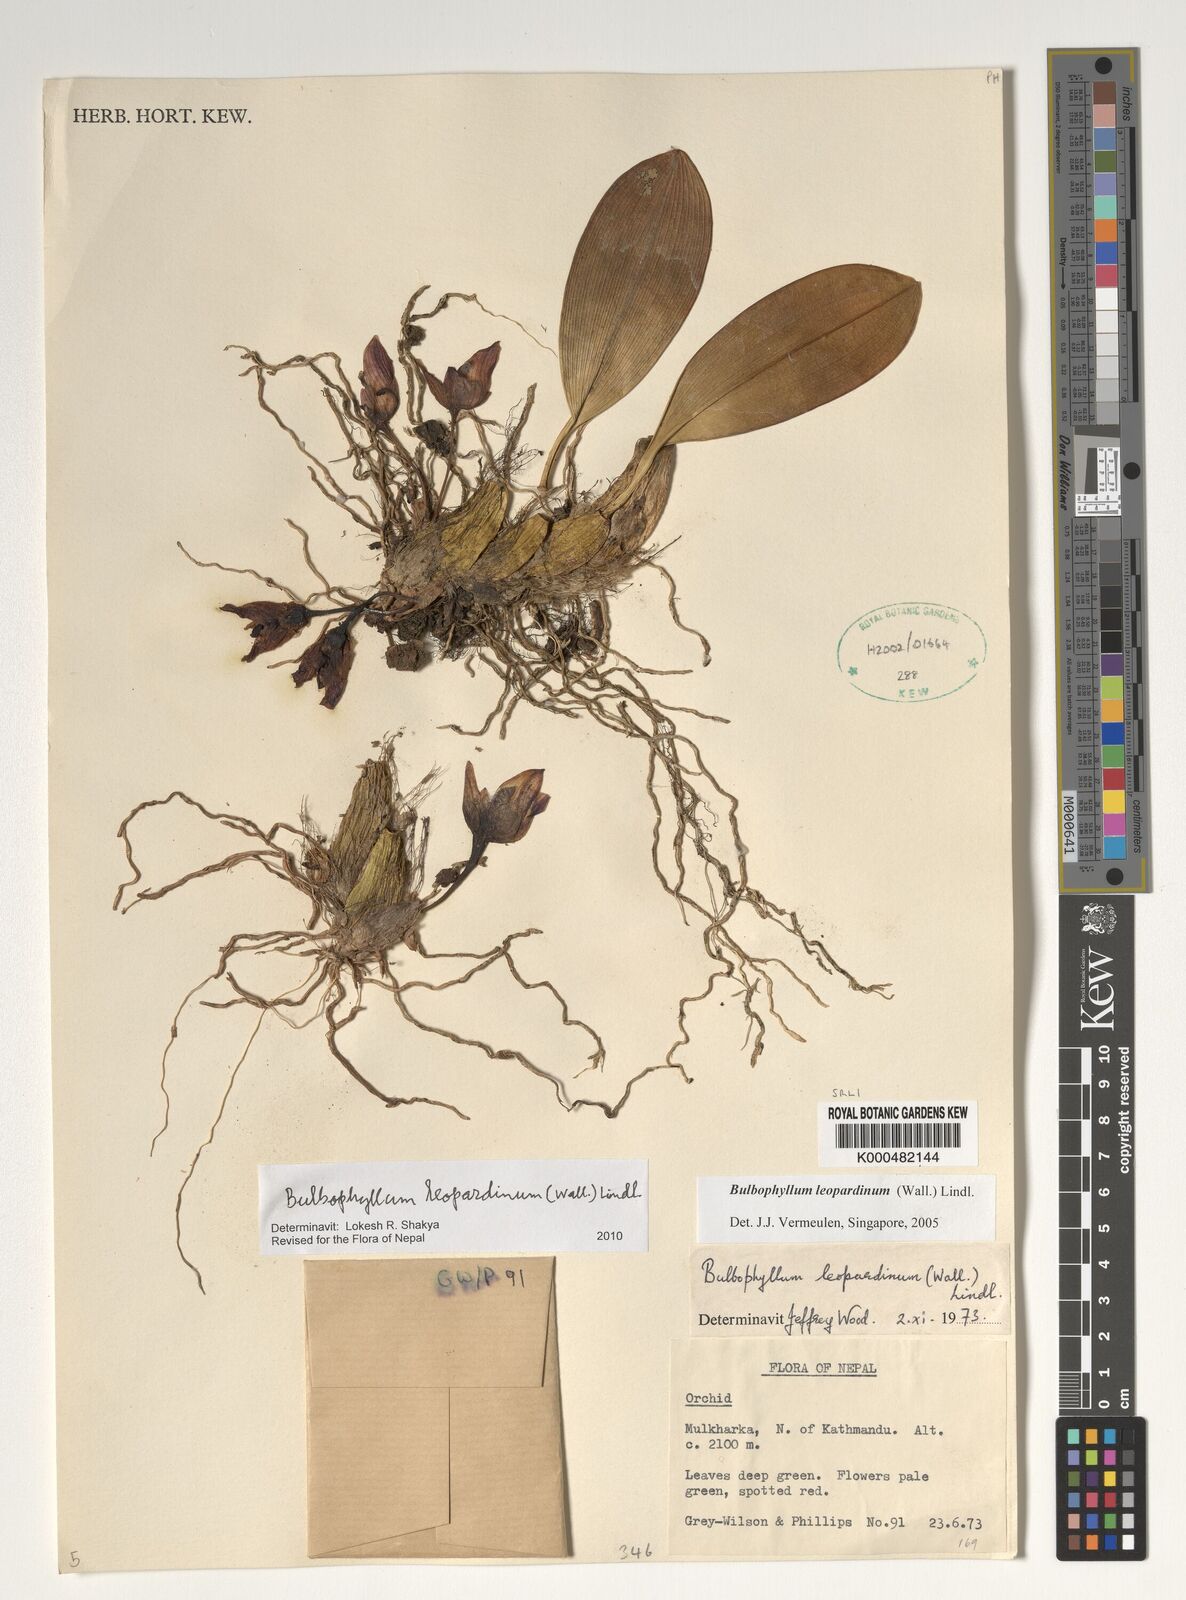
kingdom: Plantae
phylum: Tracheophyta
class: Liliopsida
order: Asparagales
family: Orchidaceae
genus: Bulbophyllum
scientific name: Bulbophyllum leopardinum
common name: Leopard spotted bulbophyllum
